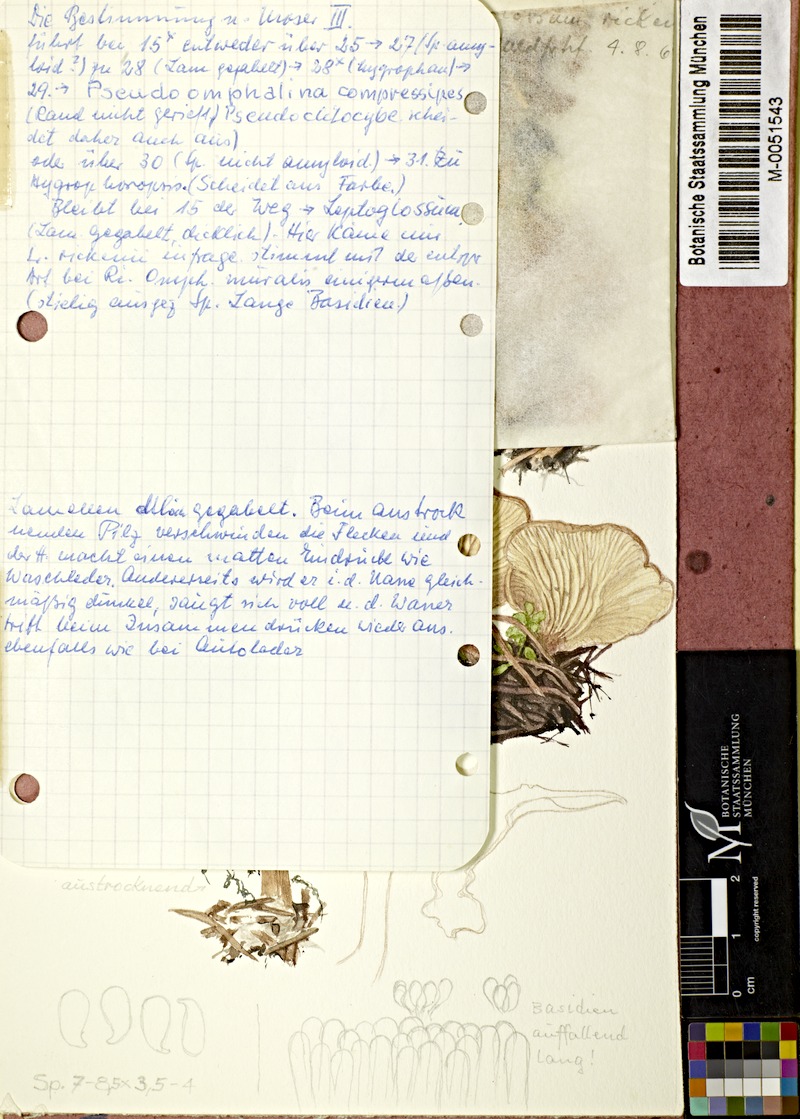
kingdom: Fungi
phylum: Basidiomycota
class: Agaricomycetes
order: Agaricales
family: Hygrophoraceae
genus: Arrhenia
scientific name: Arrhenia rickenii
